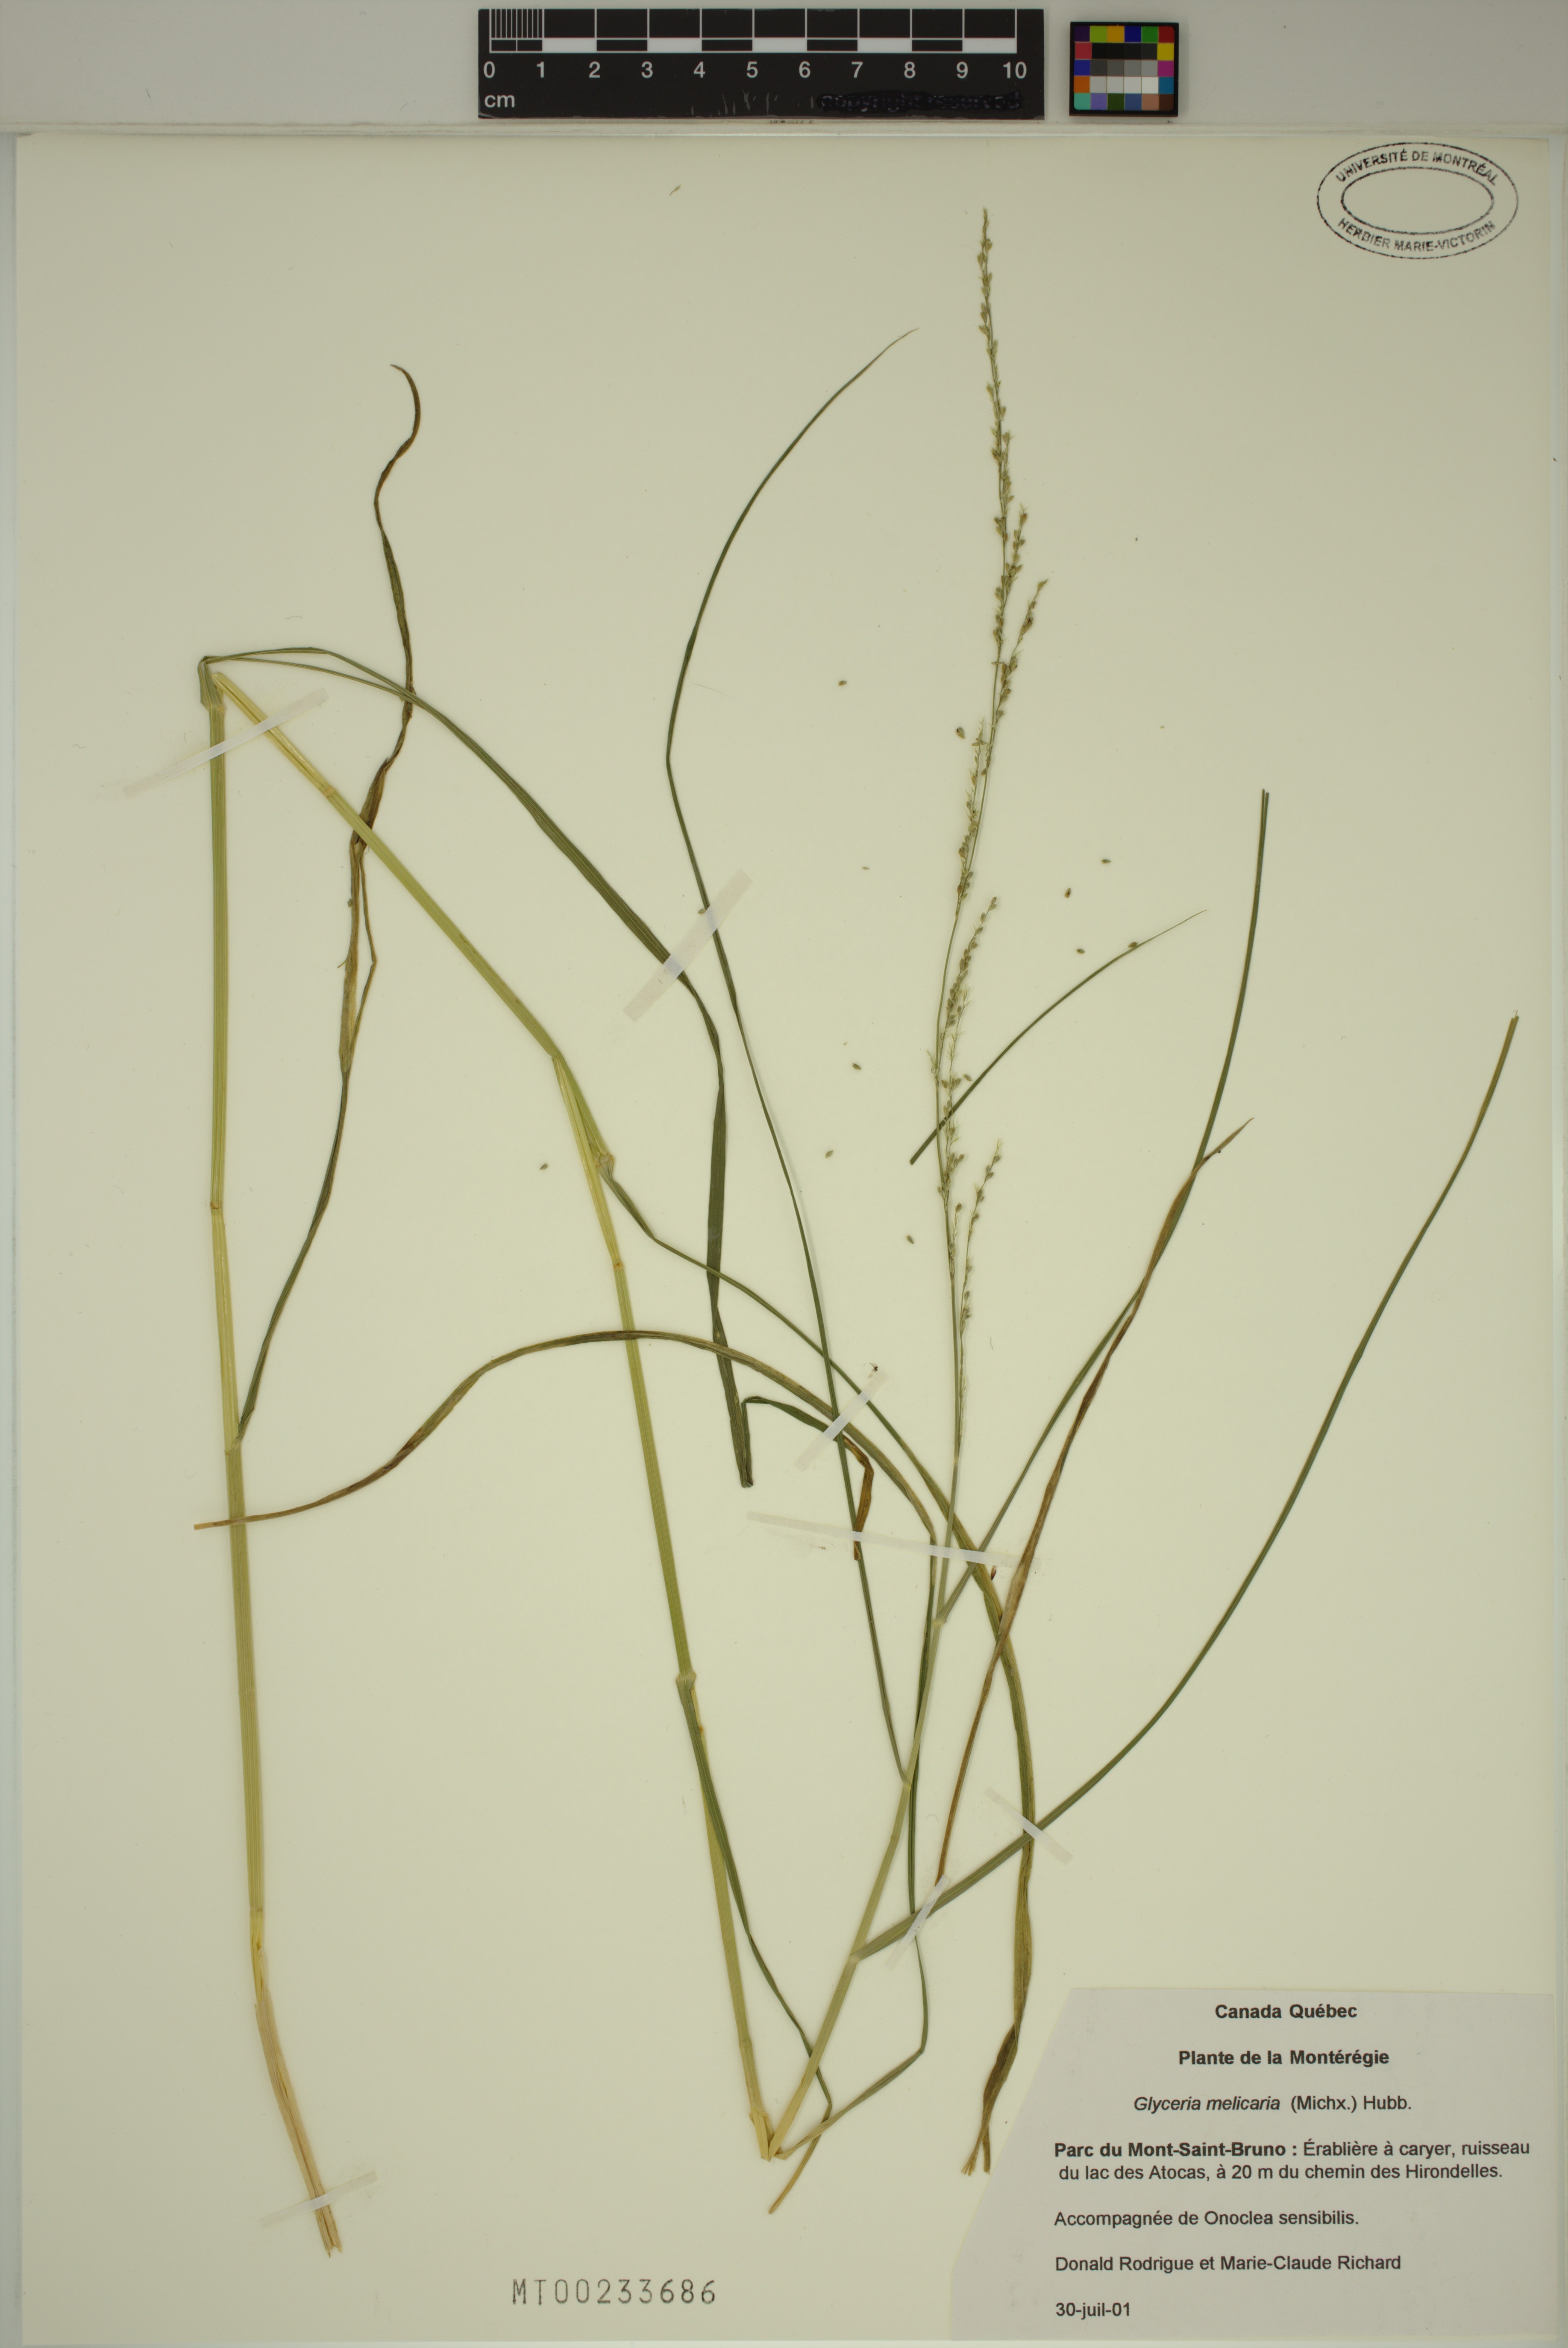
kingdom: Plantae
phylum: Tracheophyta
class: Liliopsida
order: Poales
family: Poaceae
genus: Glyceria
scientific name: Glyceria melicaria
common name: Long mannagrass
